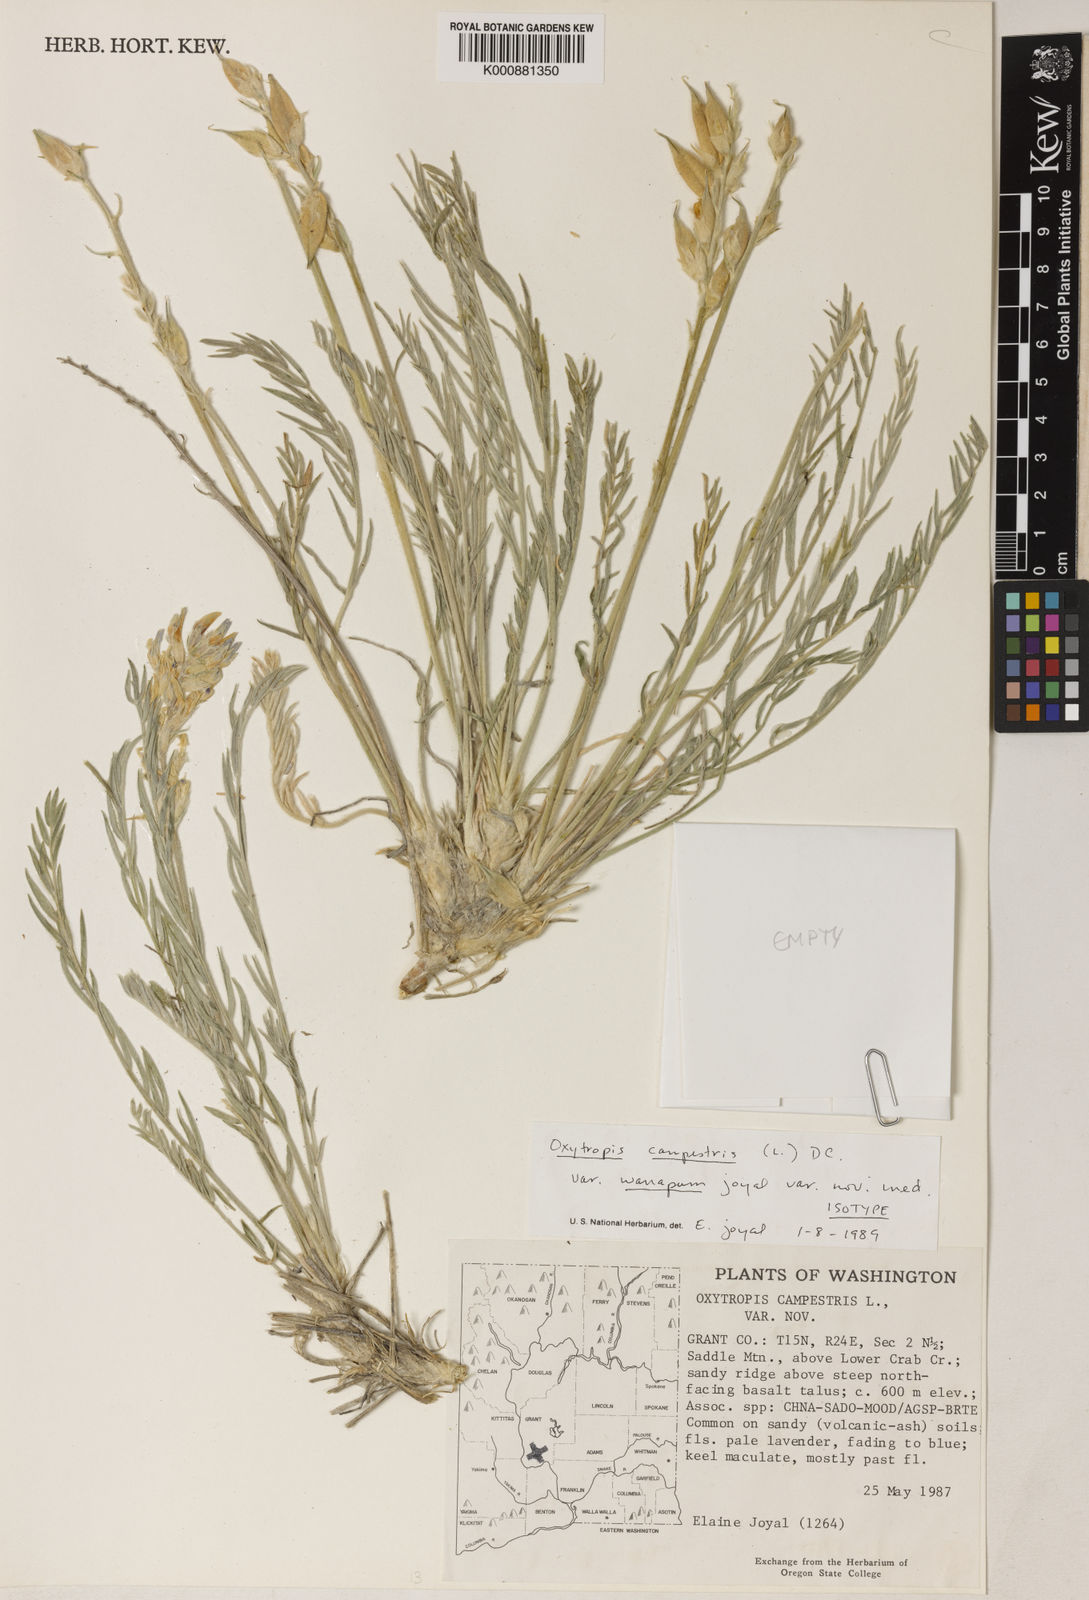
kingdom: Plantae
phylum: Tracheophyta
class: Magnoliopsida
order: Fabales
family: Fabaceae
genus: Oxytropis
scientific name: Oxytropis campestris
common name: Field locoweed
